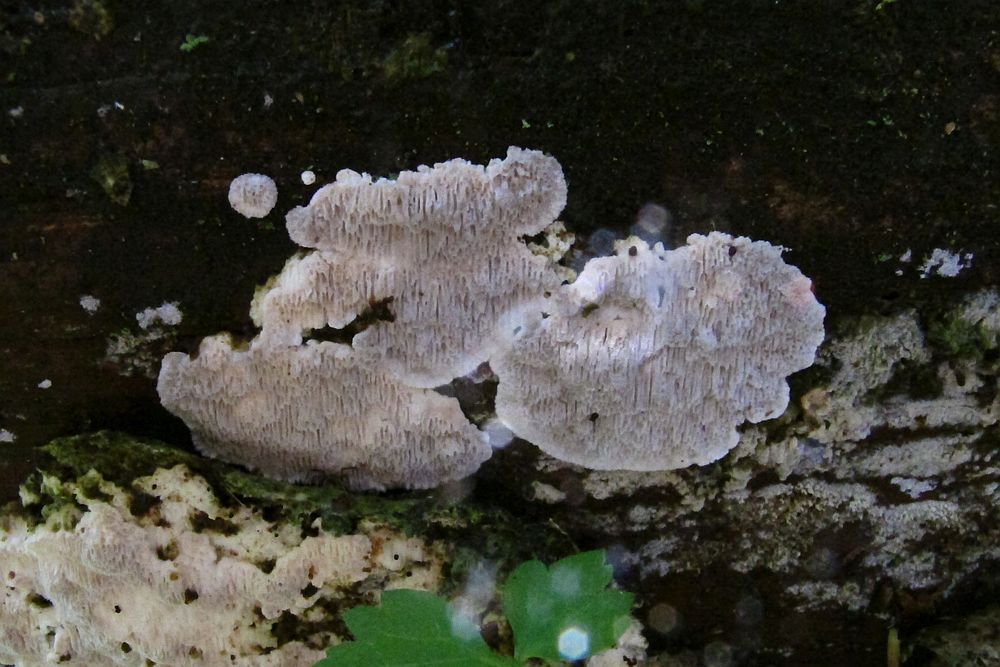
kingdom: Fungi
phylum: Basidiomycota
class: Agaricomycetes
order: Polyporales
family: Gelatoporiaceae
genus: Cinereomyces
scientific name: Cinereomyces lindbladii
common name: almindelig gråporesvamp
